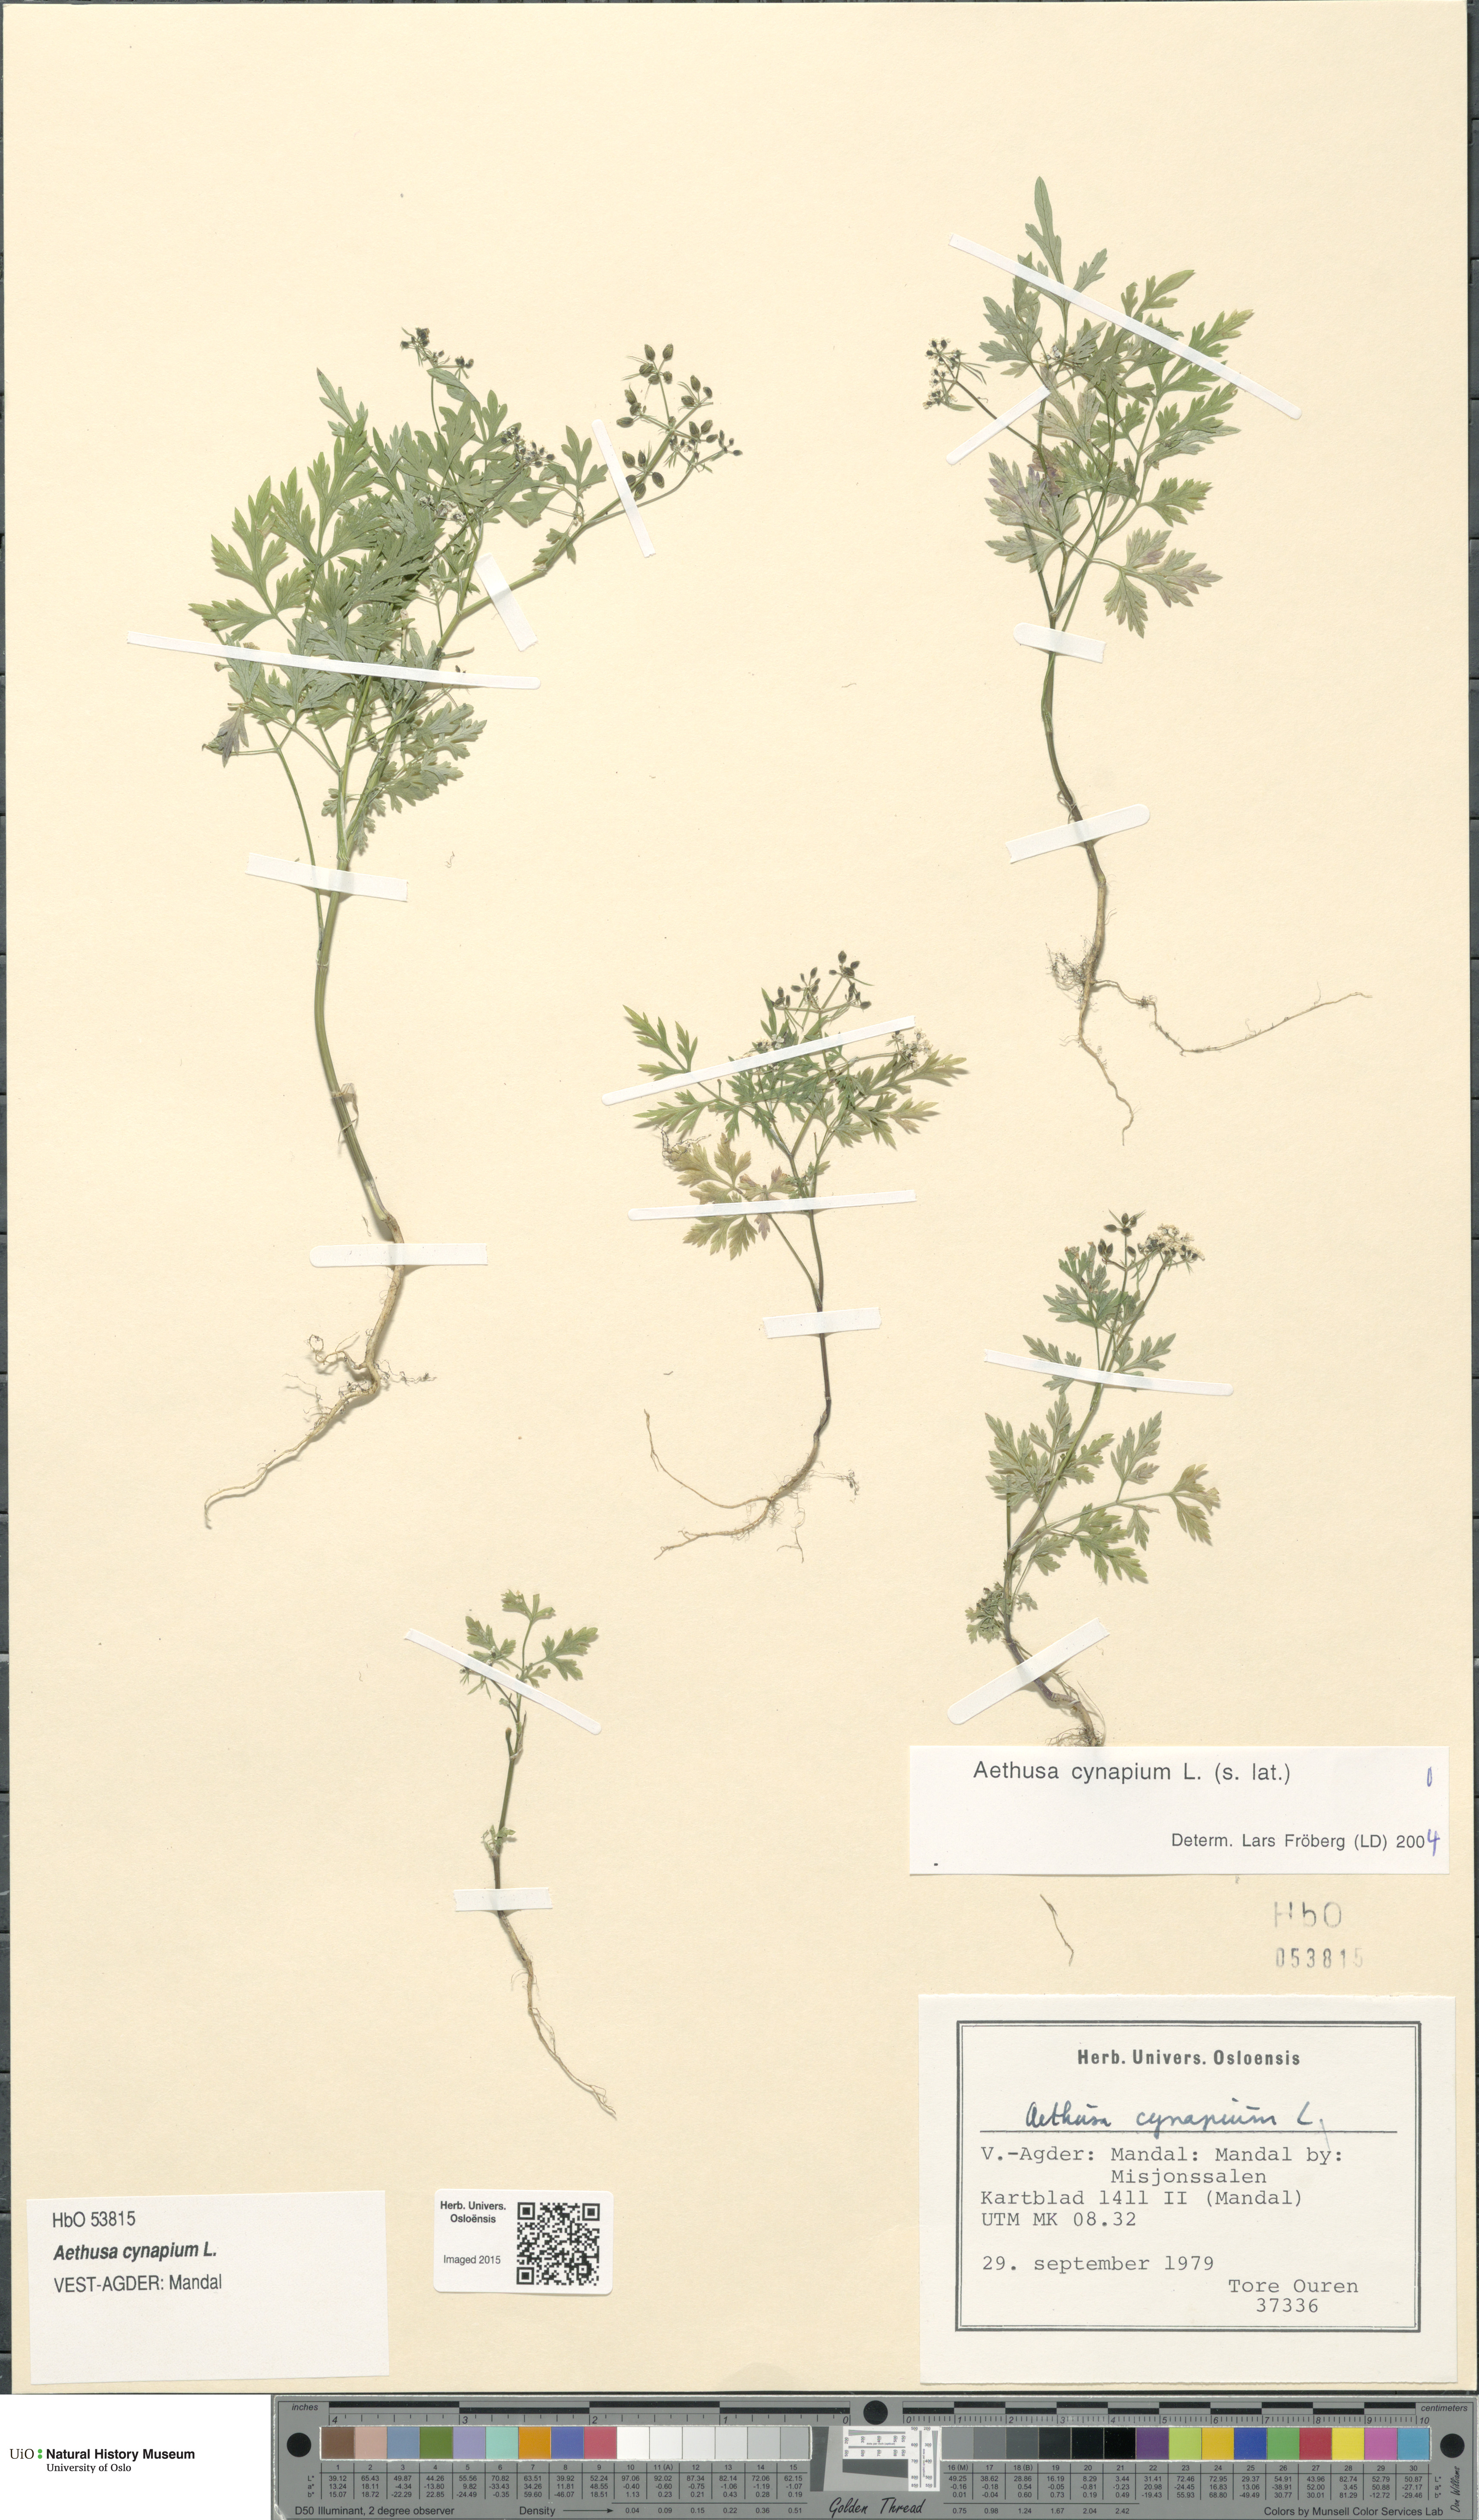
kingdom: Plantae
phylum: Tracheophyta
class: Magnoliopsida
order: Apiales
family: Apiaceae
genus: Aethusa
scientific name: Aethusa cynapium
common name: Fool's parsley
